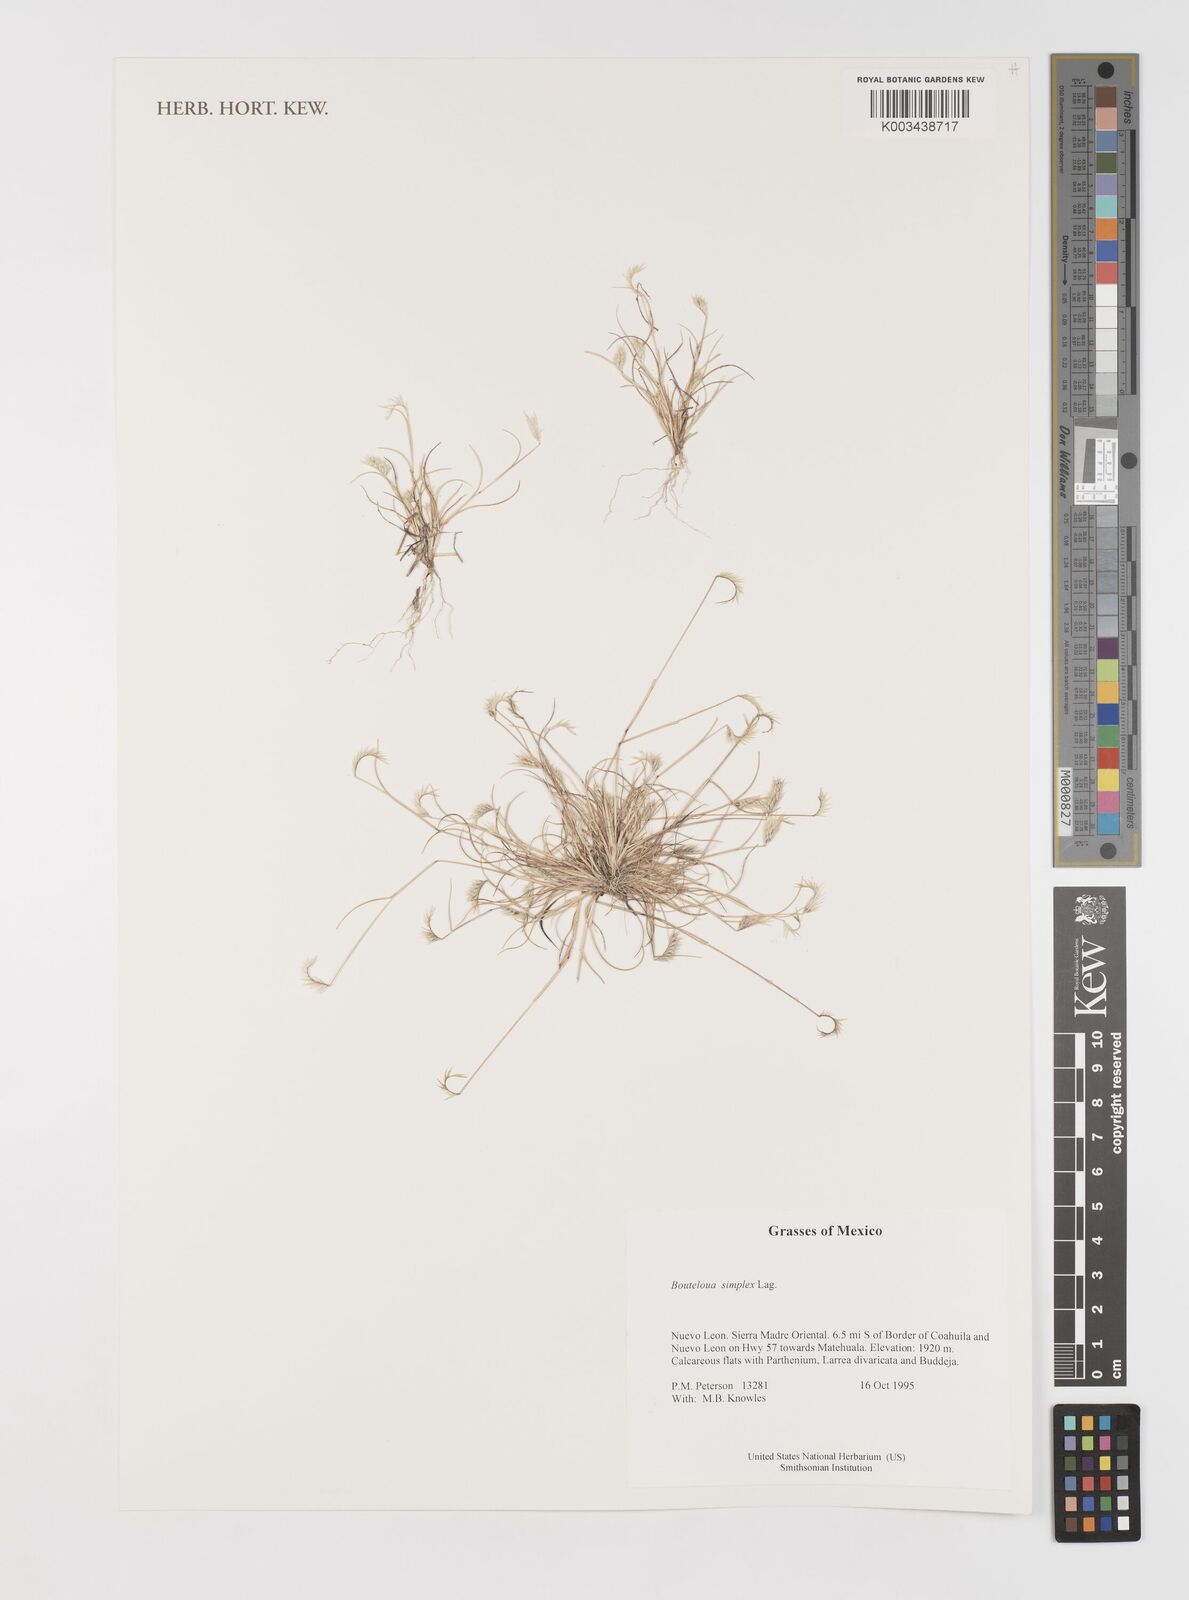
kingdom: Plantae
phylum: Tracheophyta
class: Liliopsida
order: Poales
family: Poaceae
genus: Bouteloua
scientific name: Bouteloua simplex
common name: Mat grama
